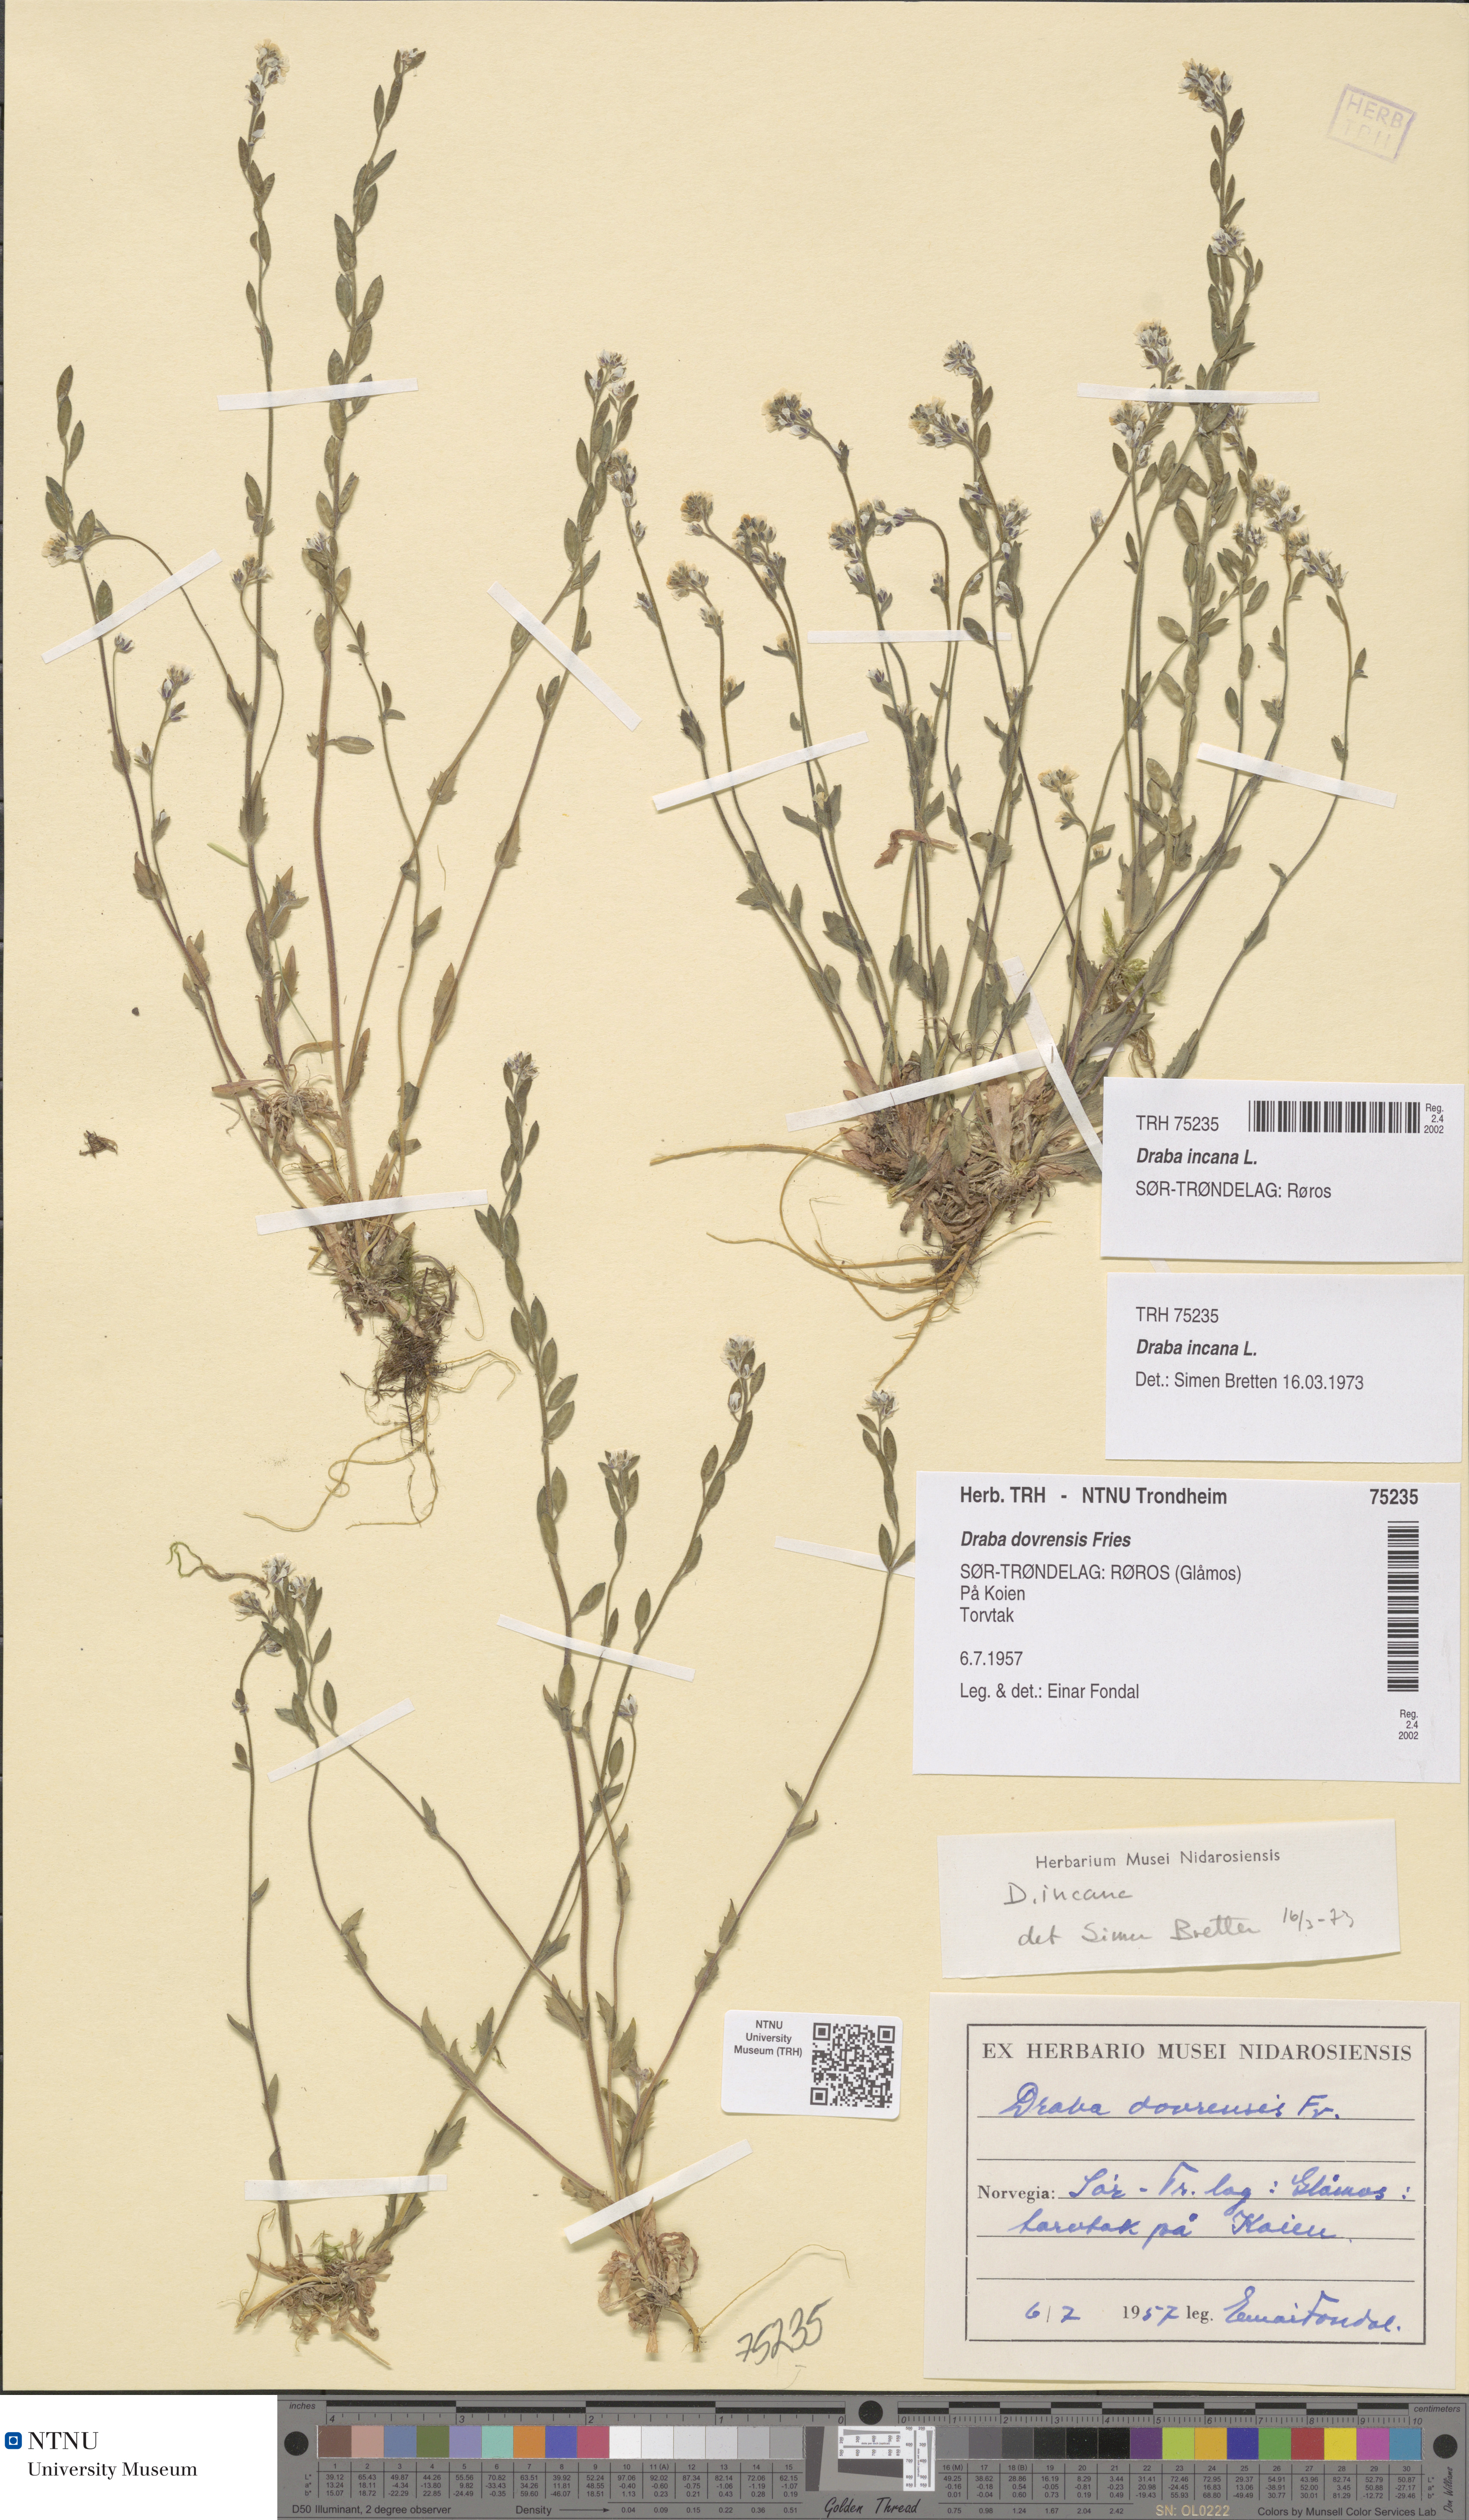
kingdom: Plantae
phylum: Tracheophyta
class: Magnoliopsida
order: Brassicales
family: Brassicaceae
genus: Draba
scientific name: Draba incana
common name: Hoary whitlow-grass
